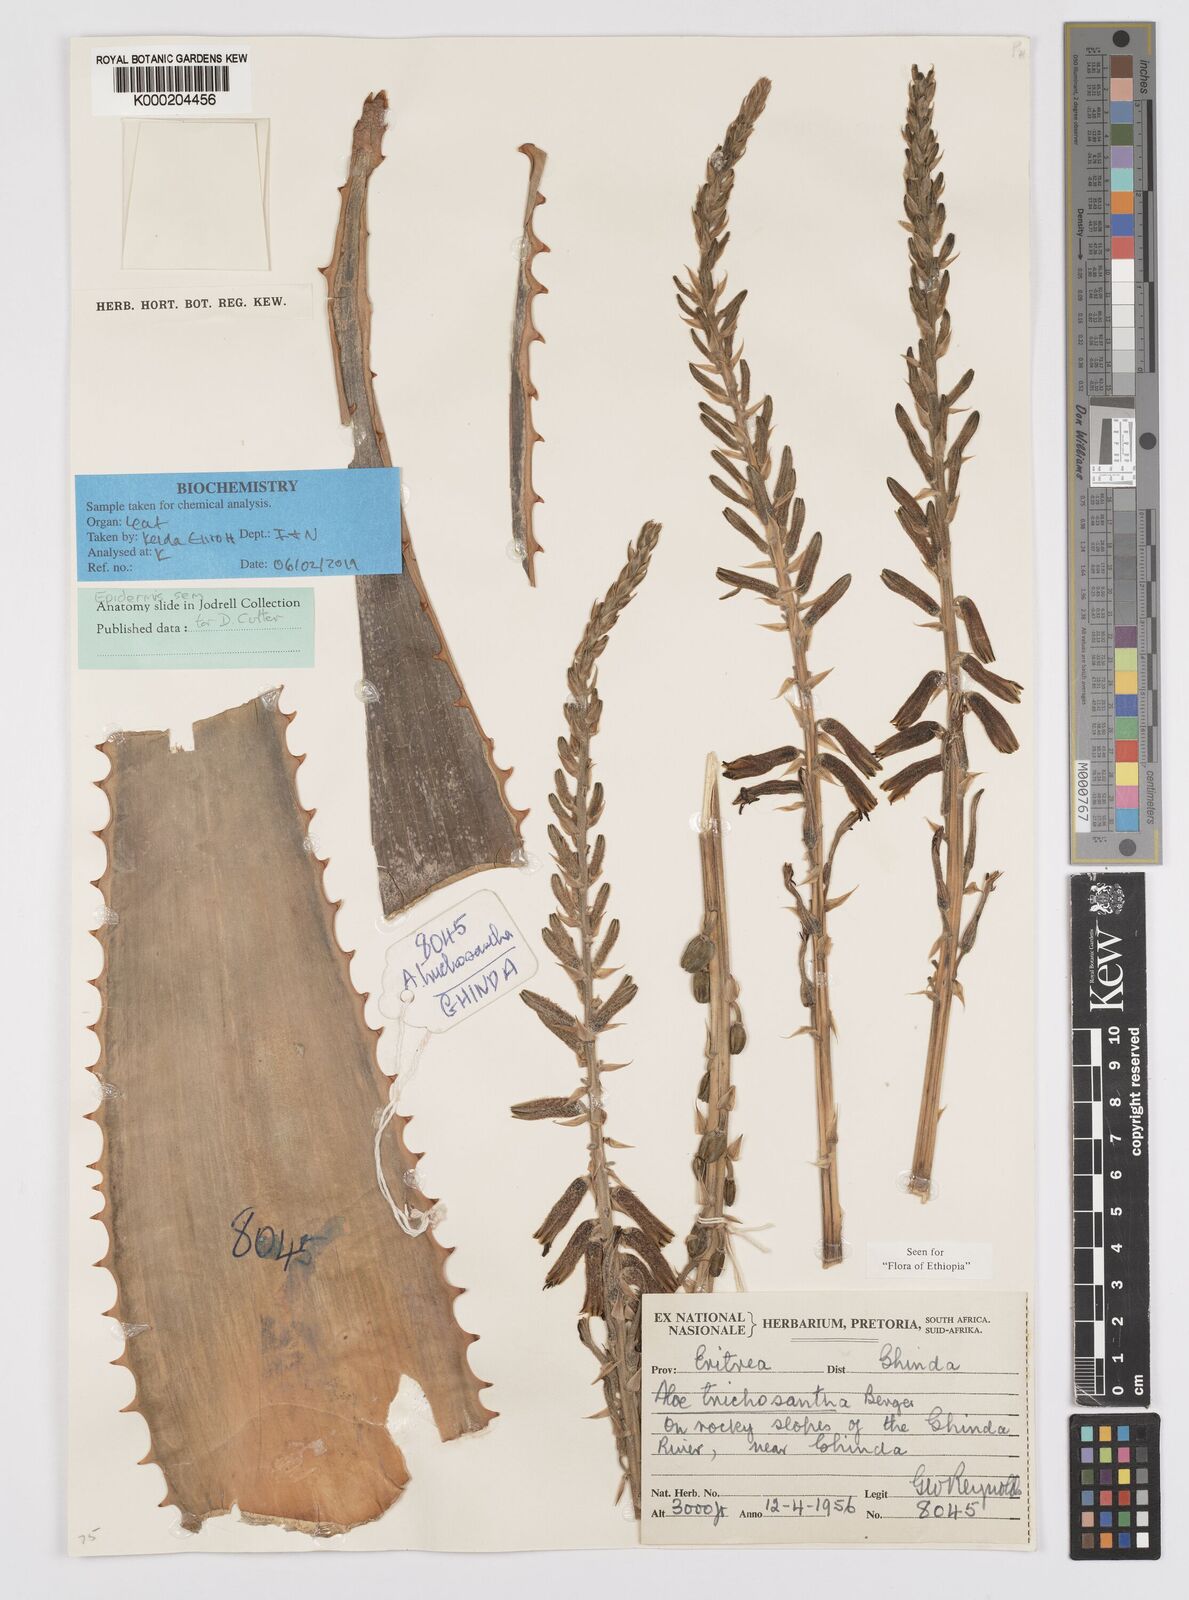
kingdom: Plantae
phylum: Tracheophyta
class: Liliopsida
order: Asparagales
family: Asphodelaceae
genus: Aloe
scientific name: Aloe trichosantha
